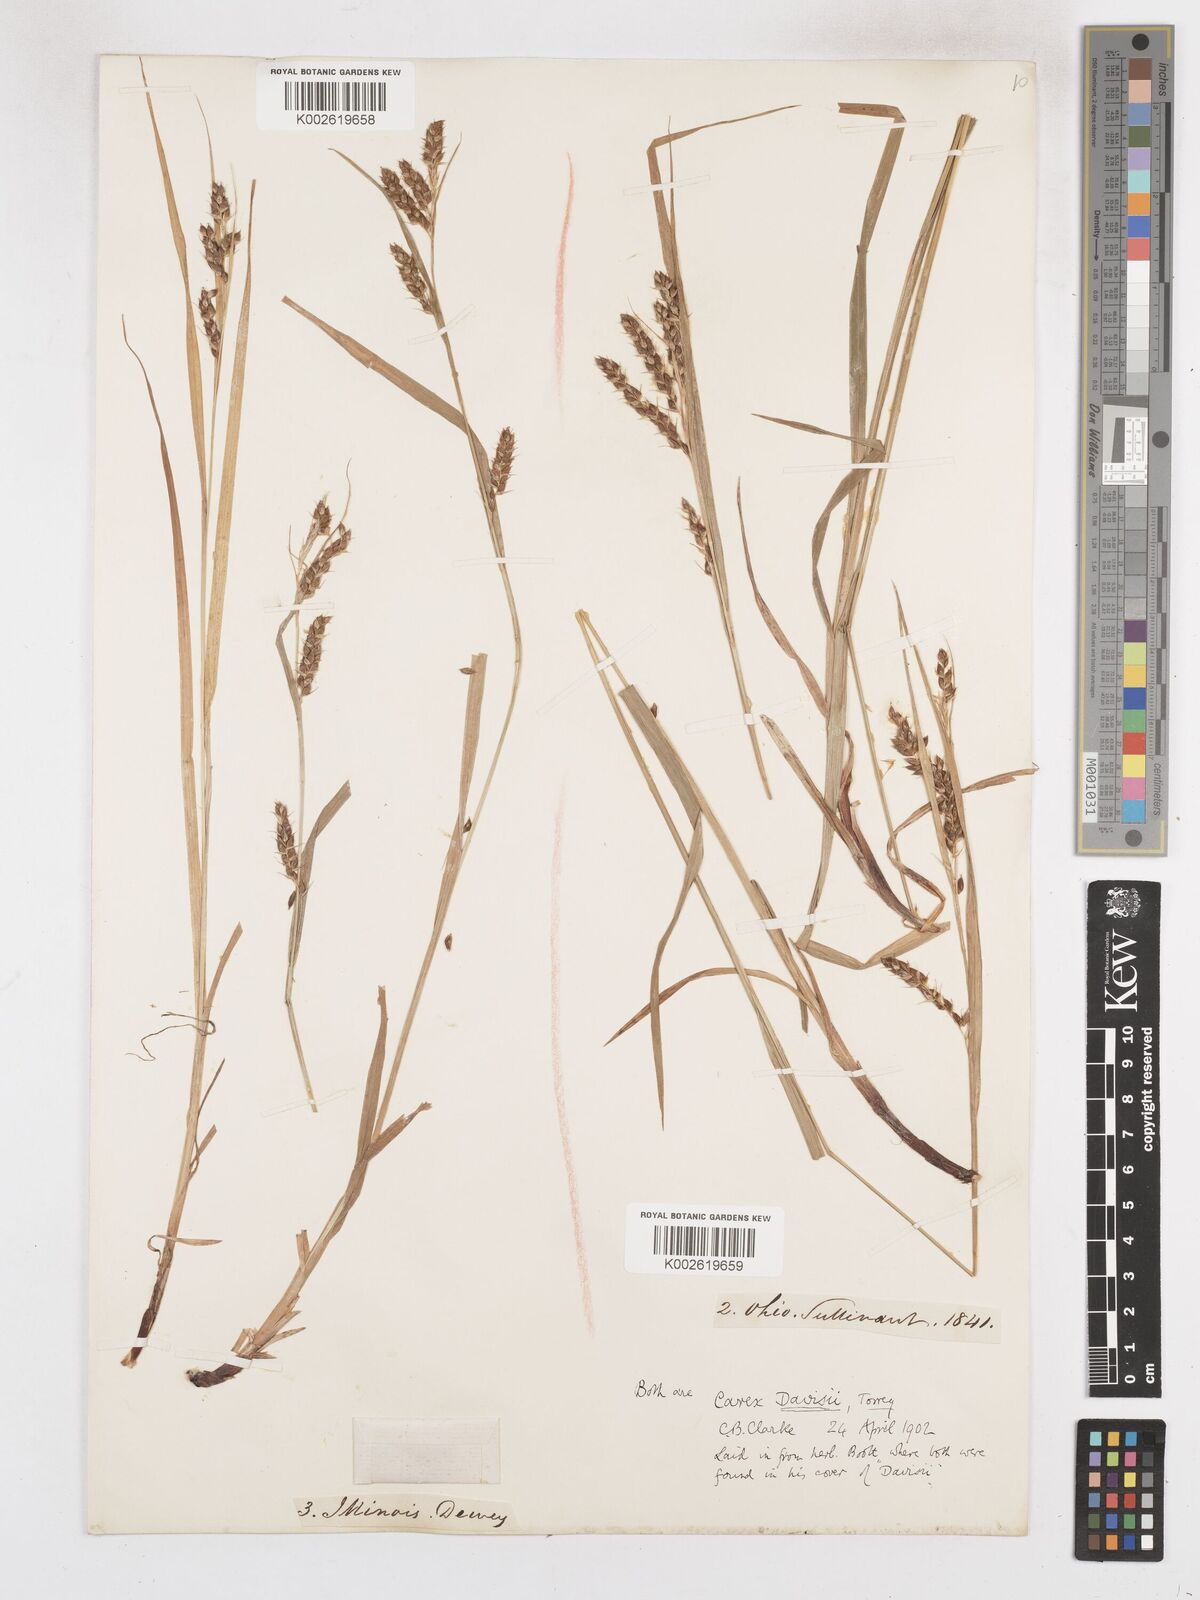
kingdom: Plantae
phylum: Tracheophyta
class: Liliopsida
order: Poales
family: Cyperaceae
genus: Carex
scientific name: Carex davisii
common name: Davis' sedge
